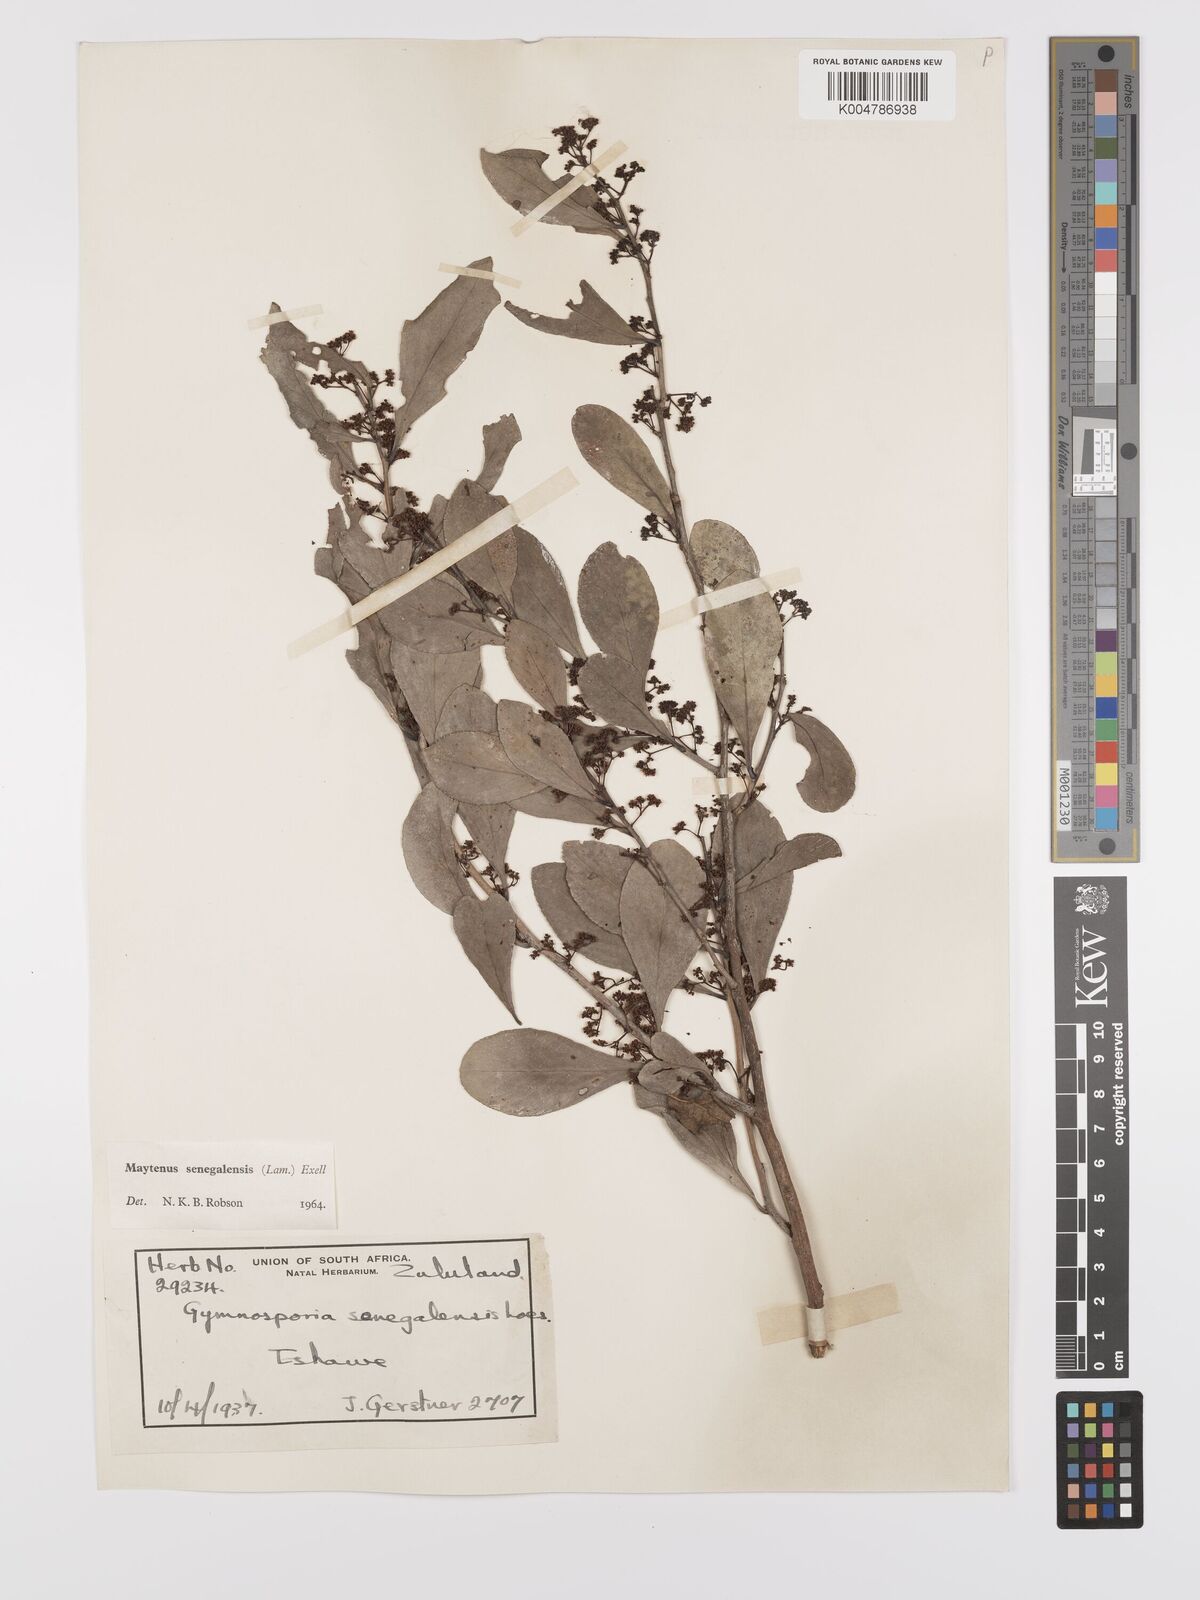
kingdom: Plantae
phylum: Tracheophyta
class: Magnoliopsida
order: Celastrales
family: Celastraceae
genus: Gymnosporia
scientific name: Gymnosporia senegalensis
